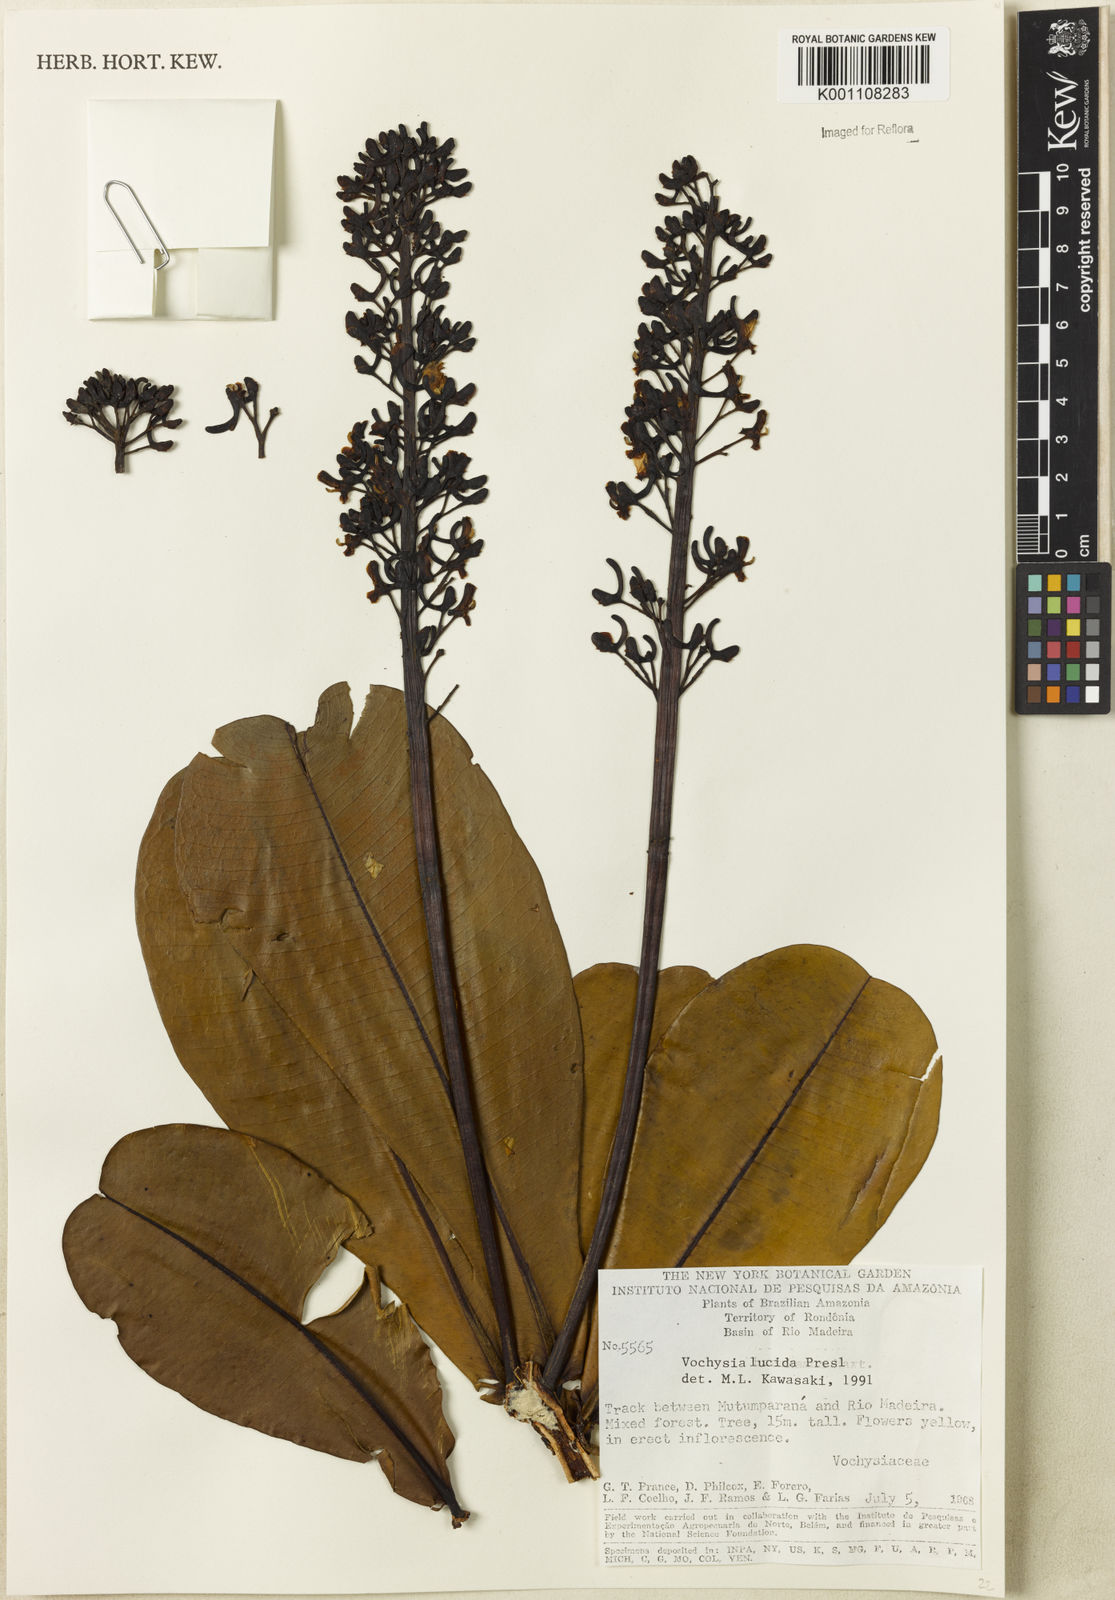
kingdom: Plantae
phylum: Tracheophyta
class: Magnoliopsida
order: Myrtales
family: Vochysiaceae
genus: Vochysia
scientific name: Vochysia lucida
